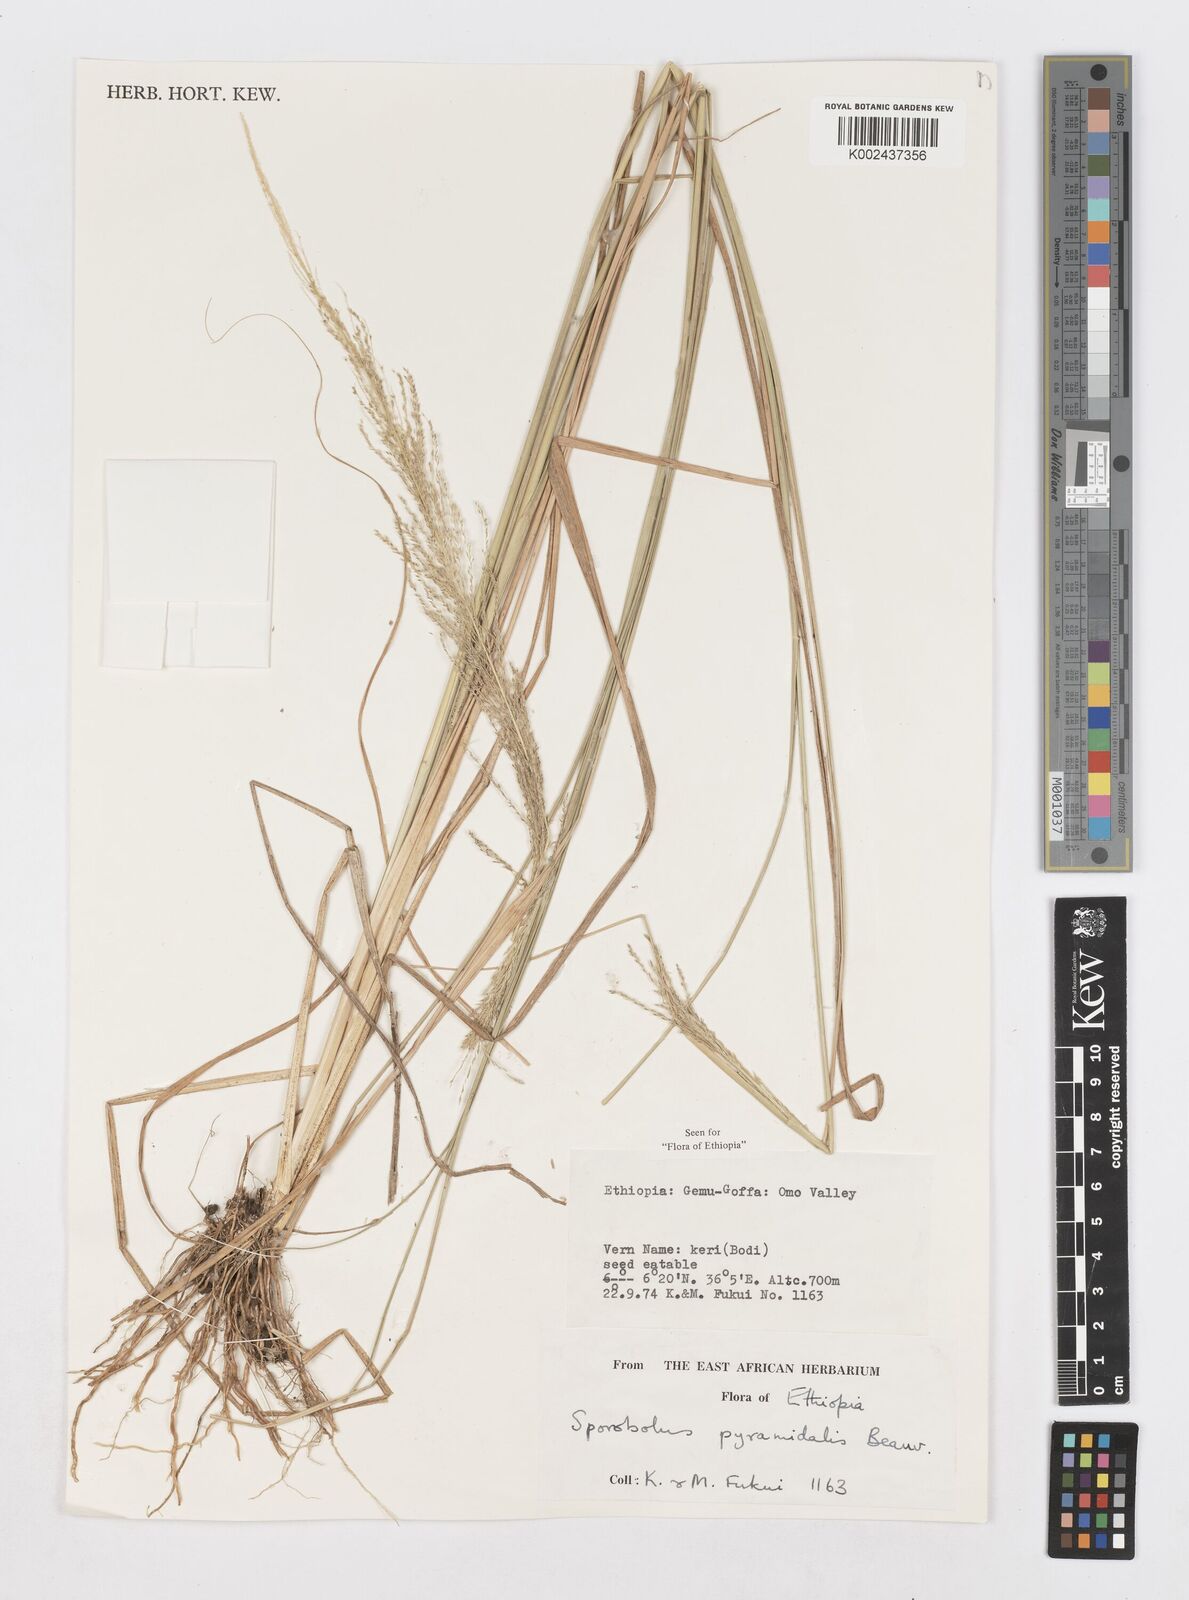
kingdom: Plantae
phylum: Tracheophyta
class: Liliopsida
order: Poales
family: Poaceae
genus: Sporobolus
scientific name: Sporobolus pyramidalis
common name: West indian dropseed
